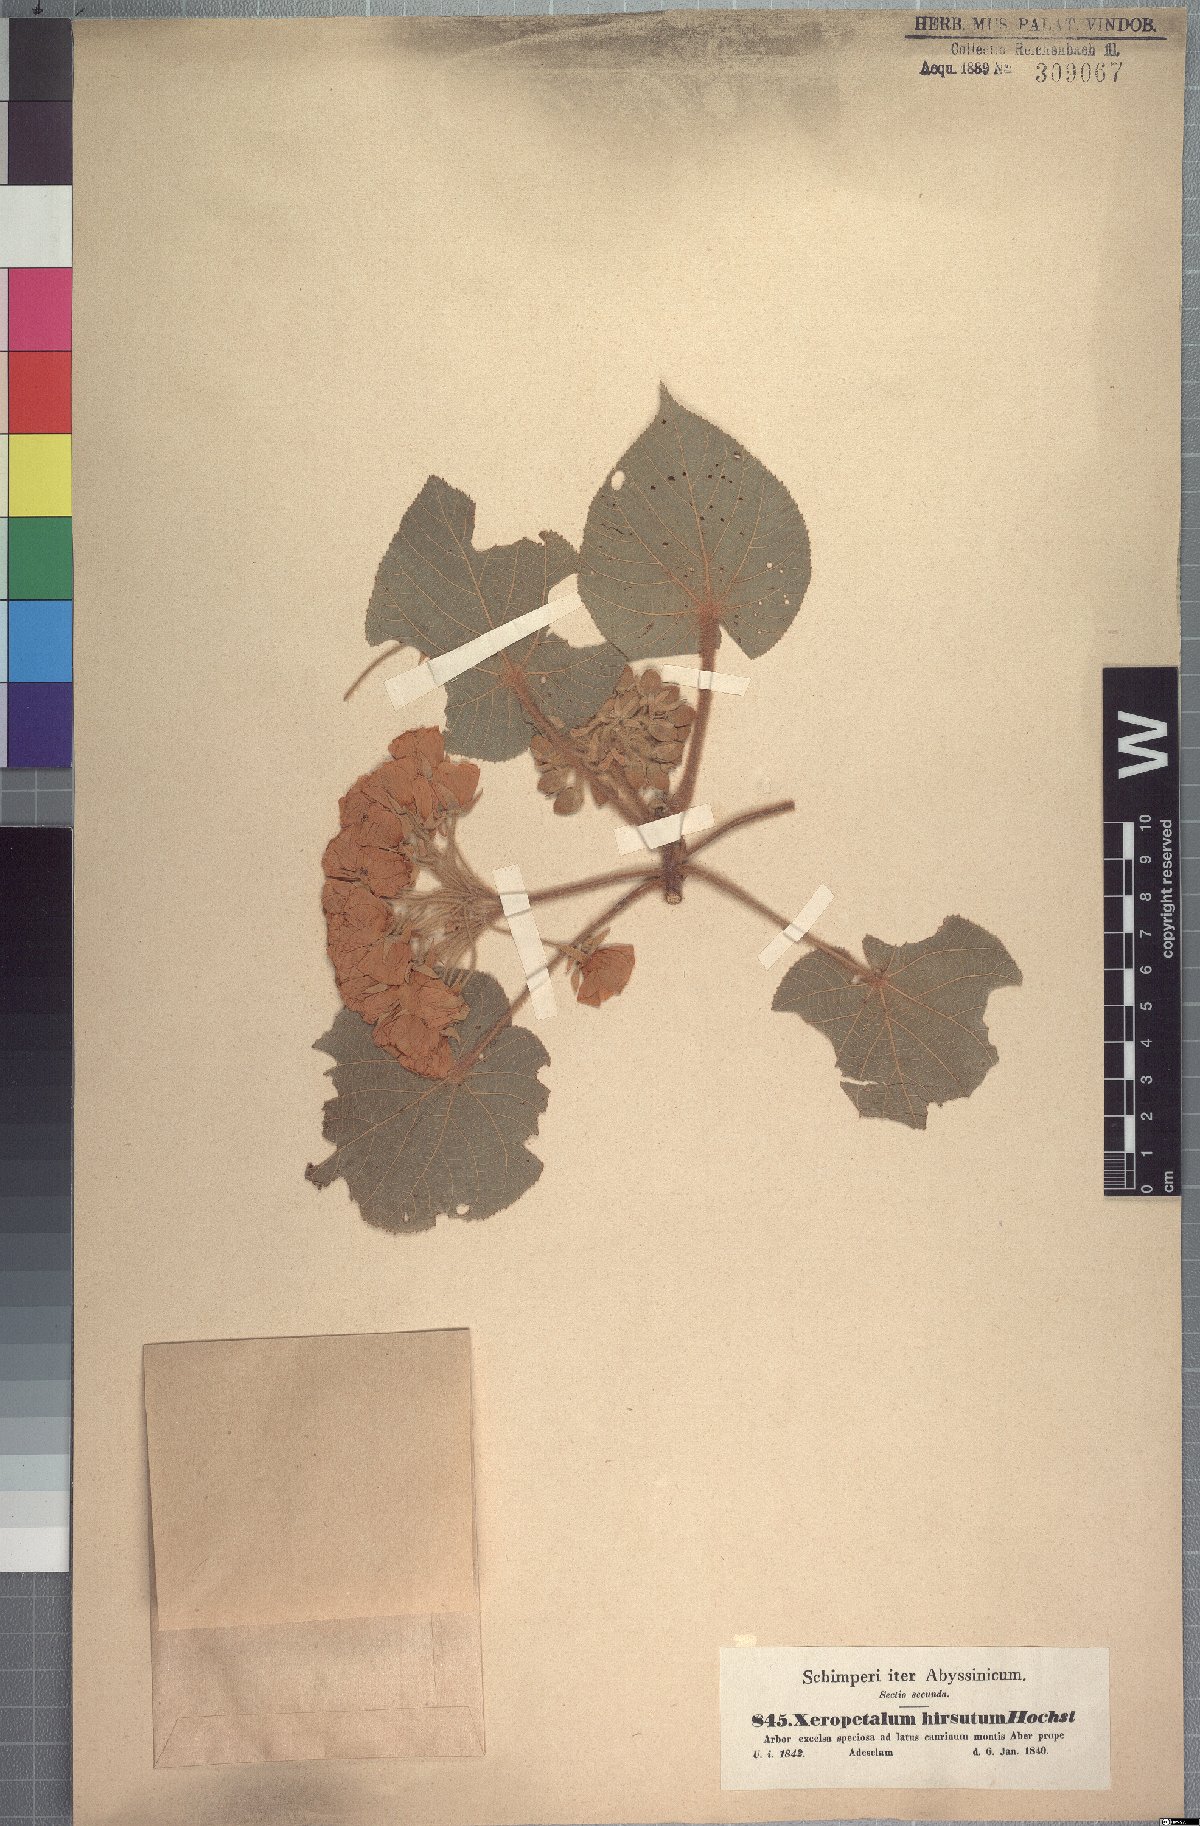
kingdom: Plantae
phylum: Tracheophyta
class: Magnoliopsida
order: Malvales
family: Malvaceae
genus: Dombeya
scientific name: Dombeya torrida
